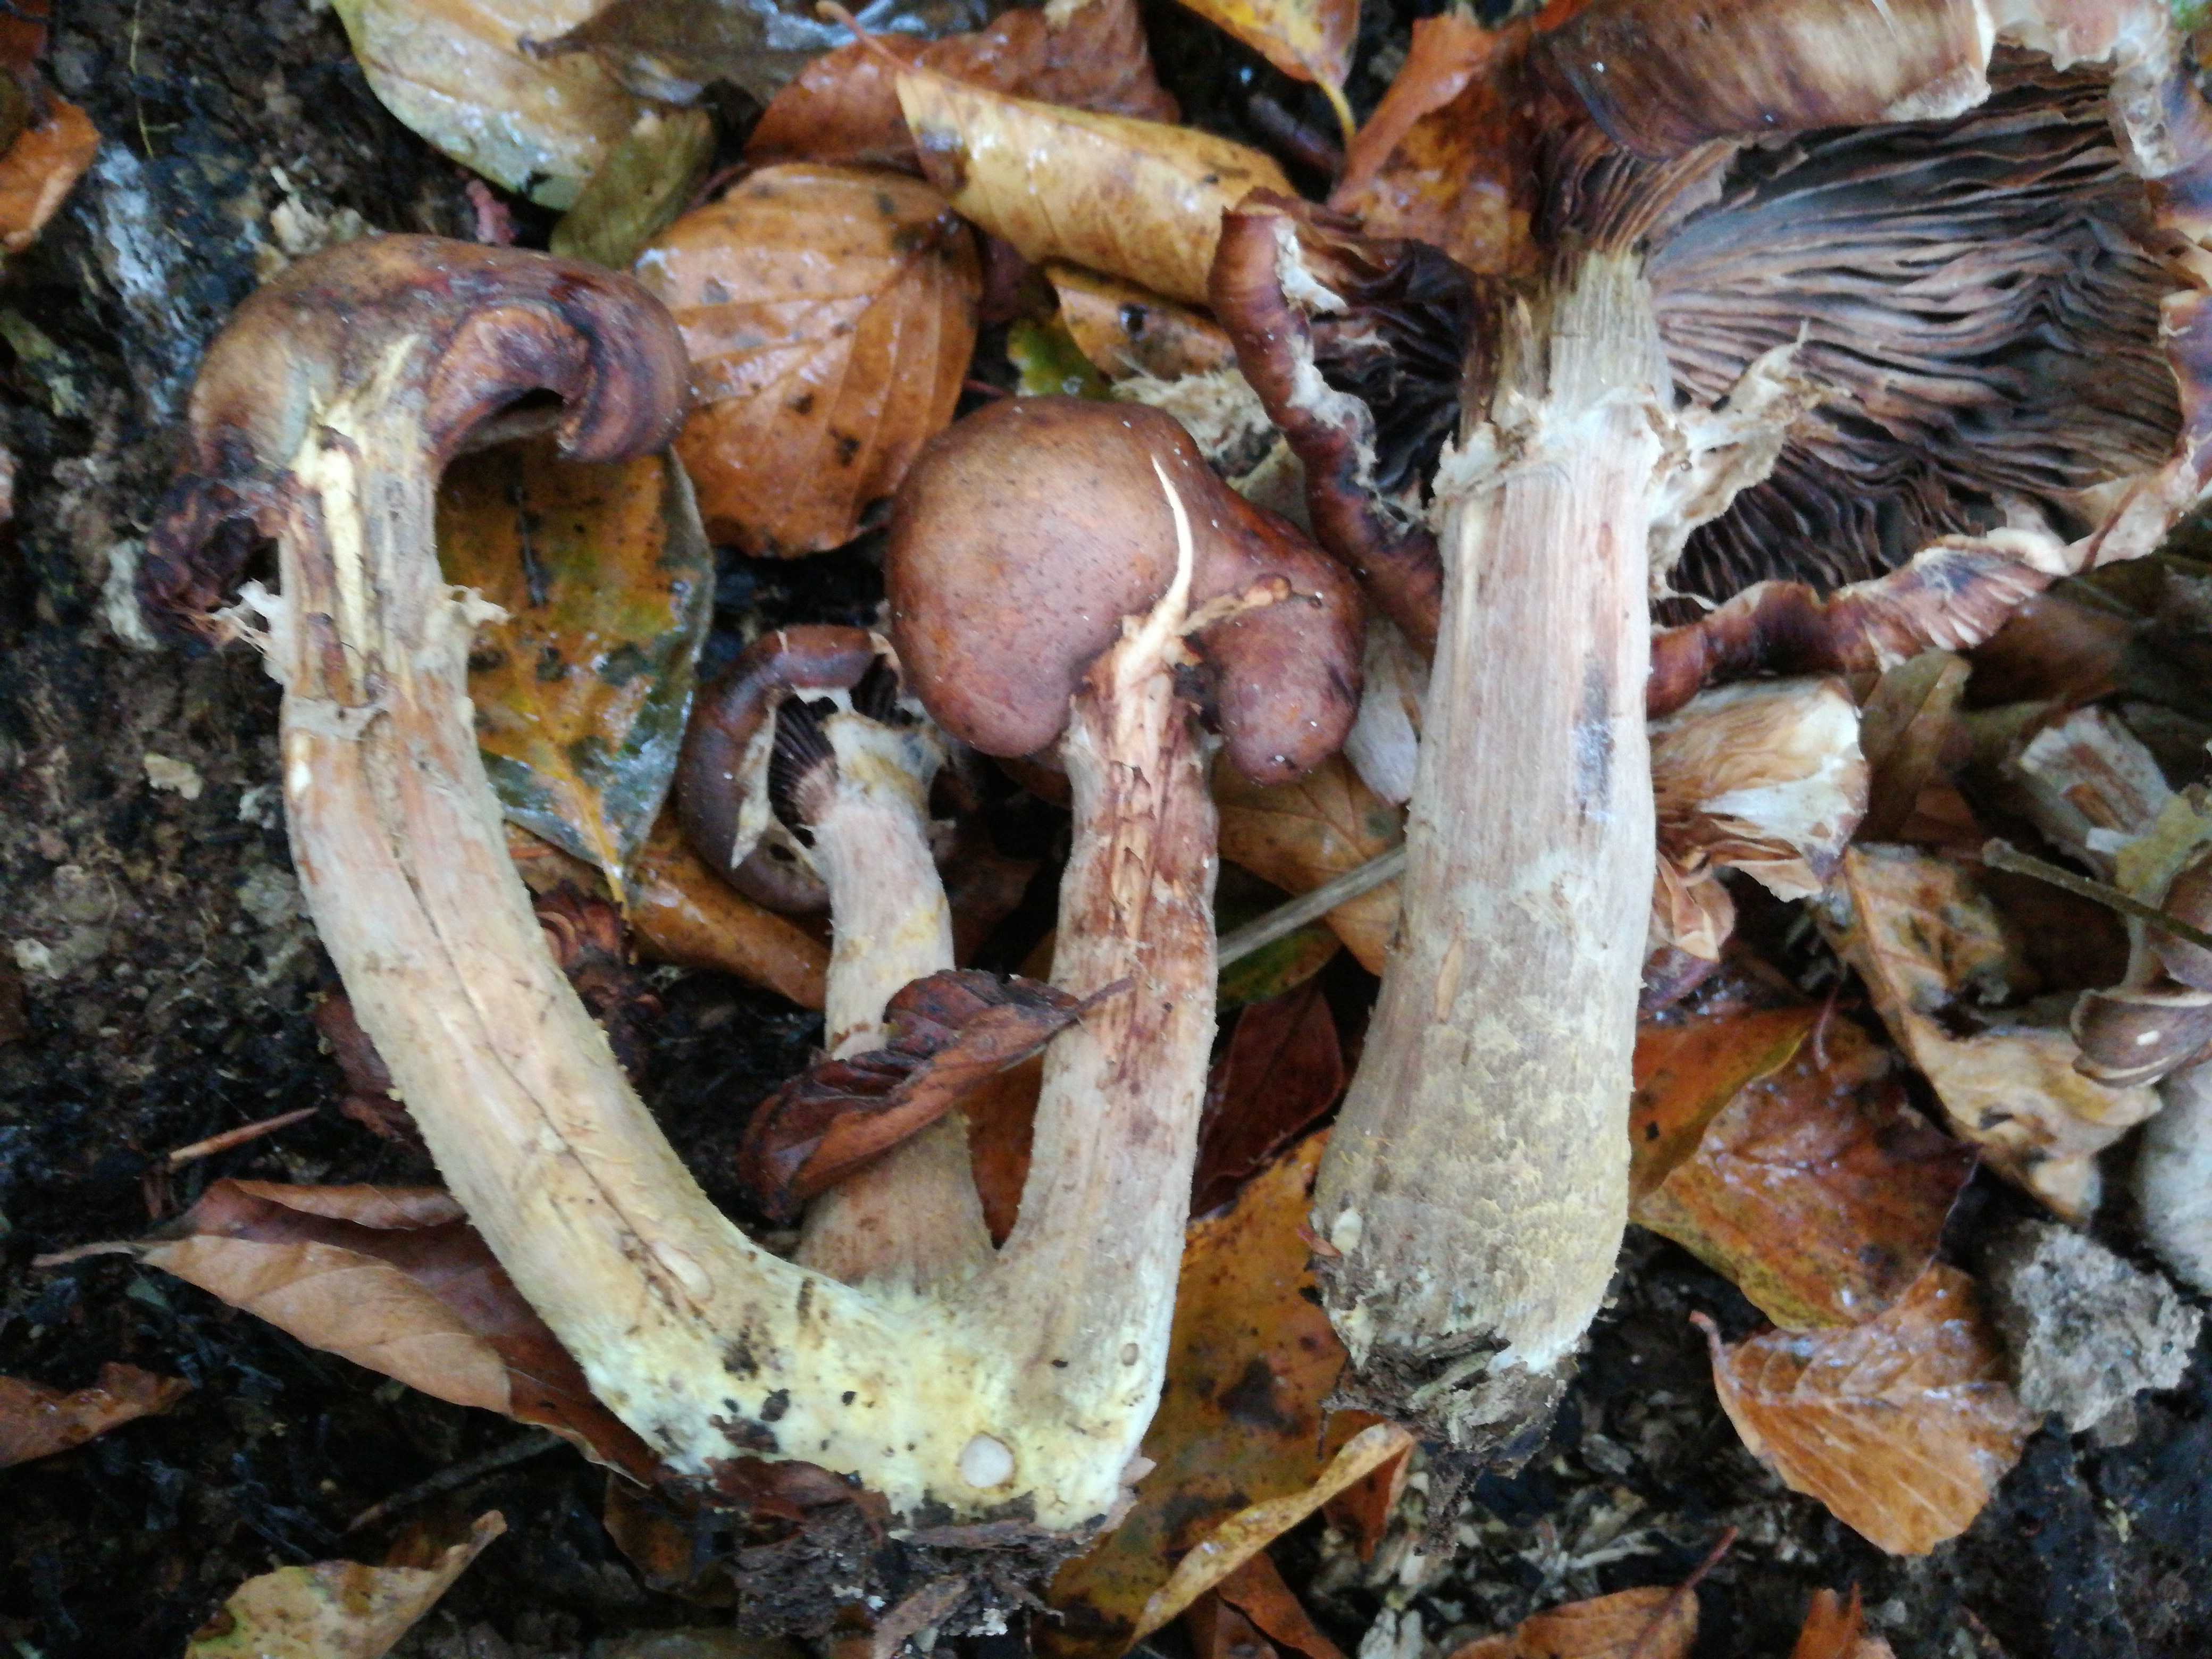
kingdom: Fungi
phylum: Basidiomycota
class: Agaricomycetes
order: Agaricales
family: Physalacriaceae
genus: Armillaria
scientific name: Armillaria lutea
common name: køllestokket honningsvamp
